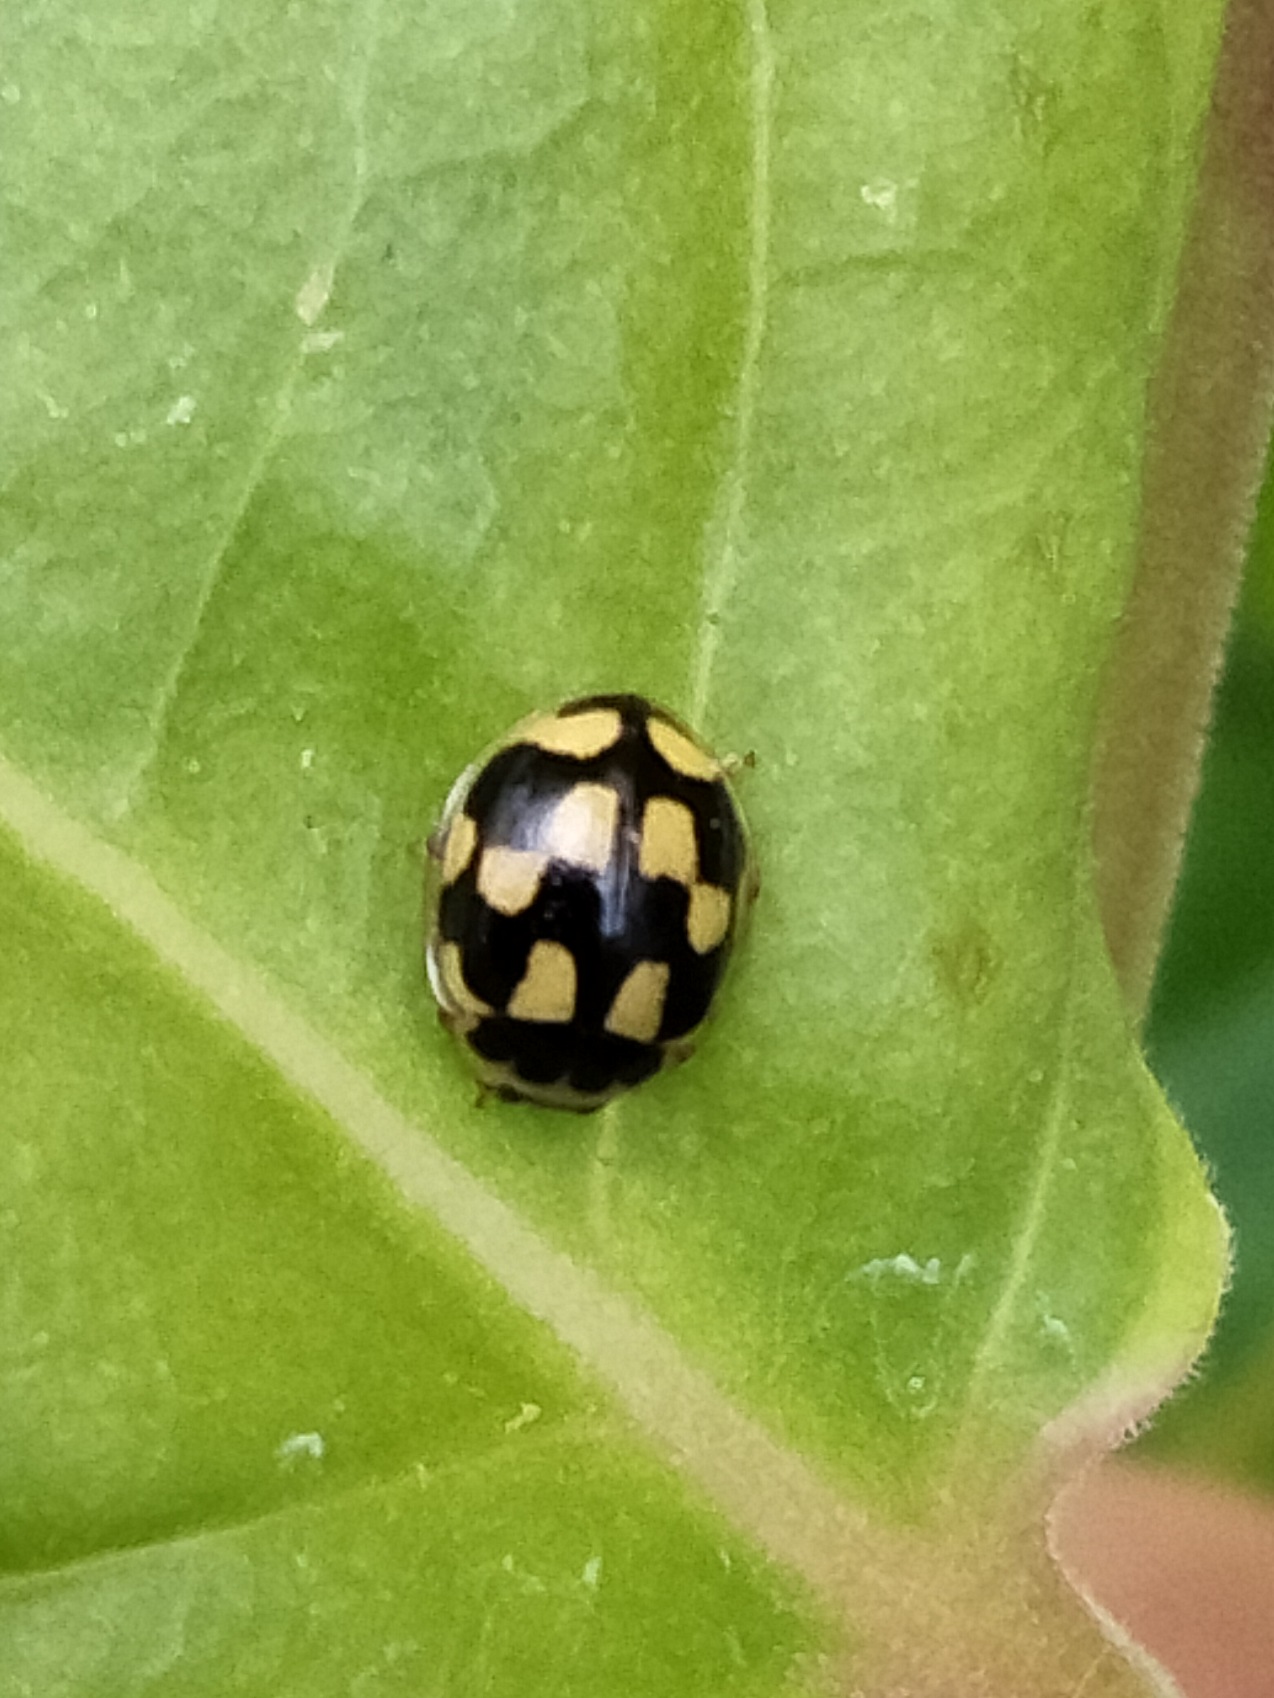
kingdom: Animalia
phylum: Arthropoda
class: Insecta
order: Coleoptera
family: Coccinellidae
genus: Propylaea
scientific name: Propylaea quatuordecimpunctata
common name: Skakbræt
